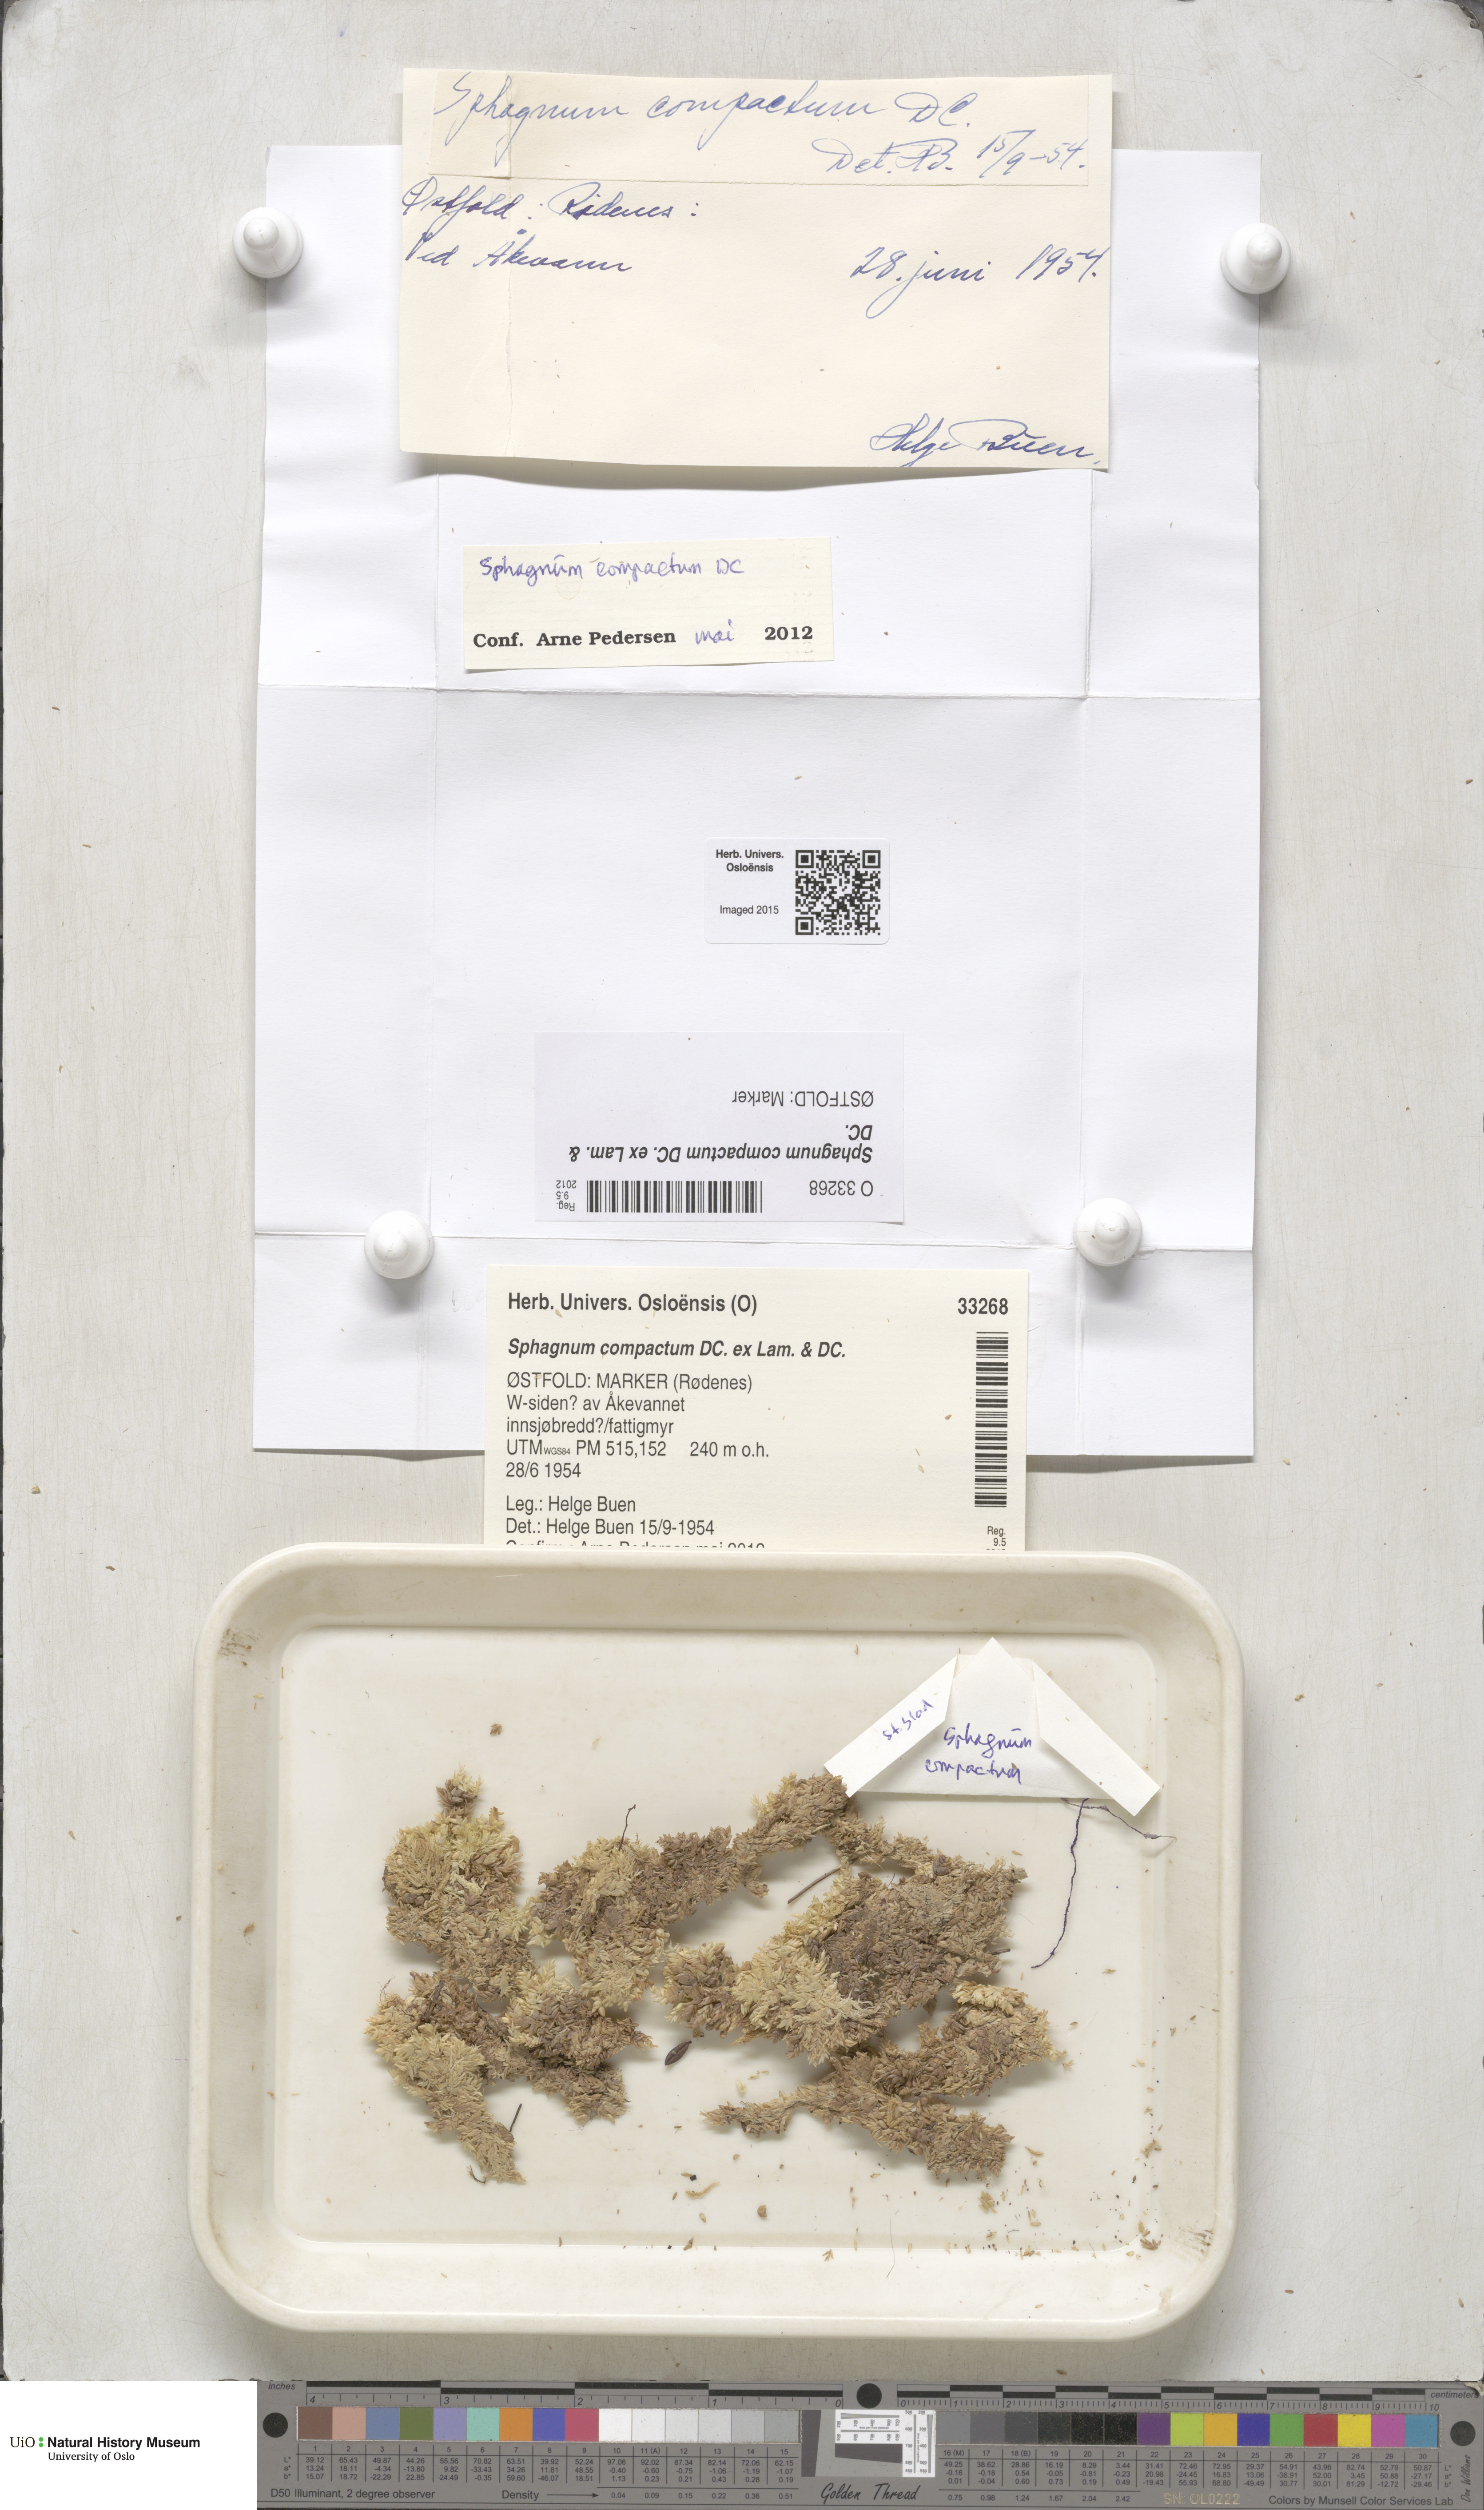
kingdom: Plantae
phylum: Bryophyta
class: Sphagnopsida
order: Sphagnales
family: Sphagnaceae
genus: Sphagnum
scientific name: Sphagnum compactum
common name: Compact peat moss
